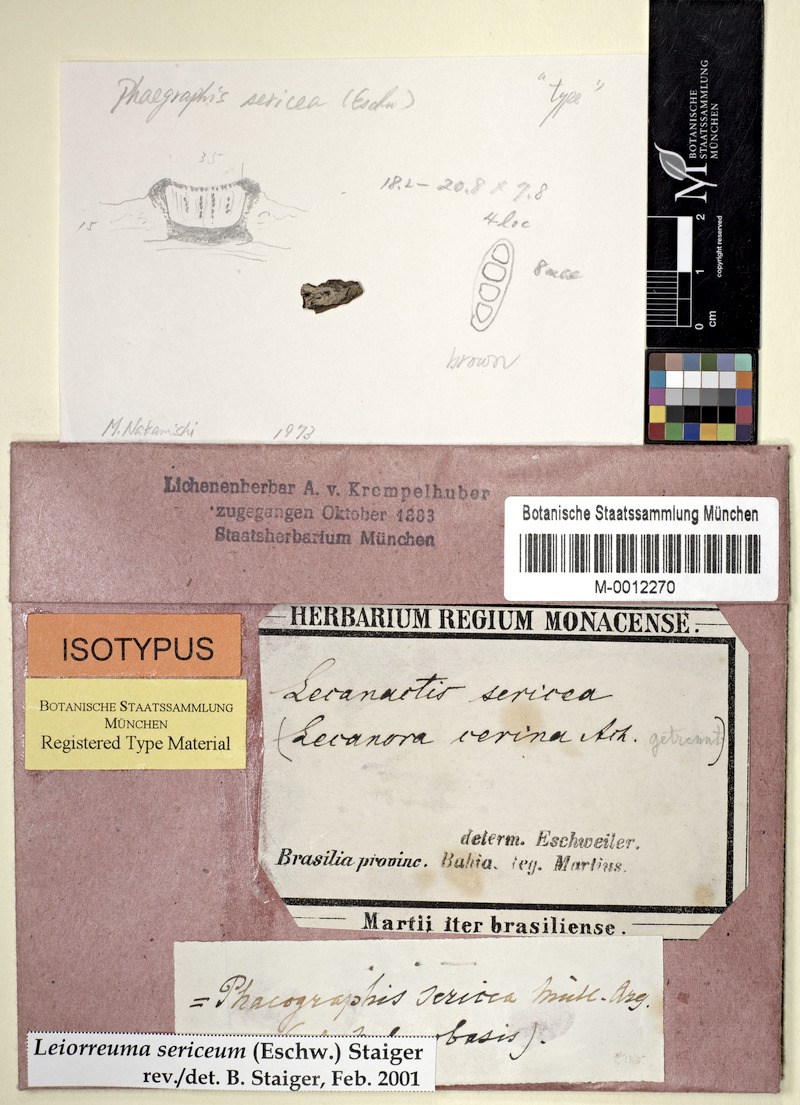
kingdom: Fungi
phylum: Ascomycota
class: Lecanoromycetes
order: Ostropales
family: Graphidaceae
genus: Leiorreuma
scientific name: Leiorreuma sericeum
